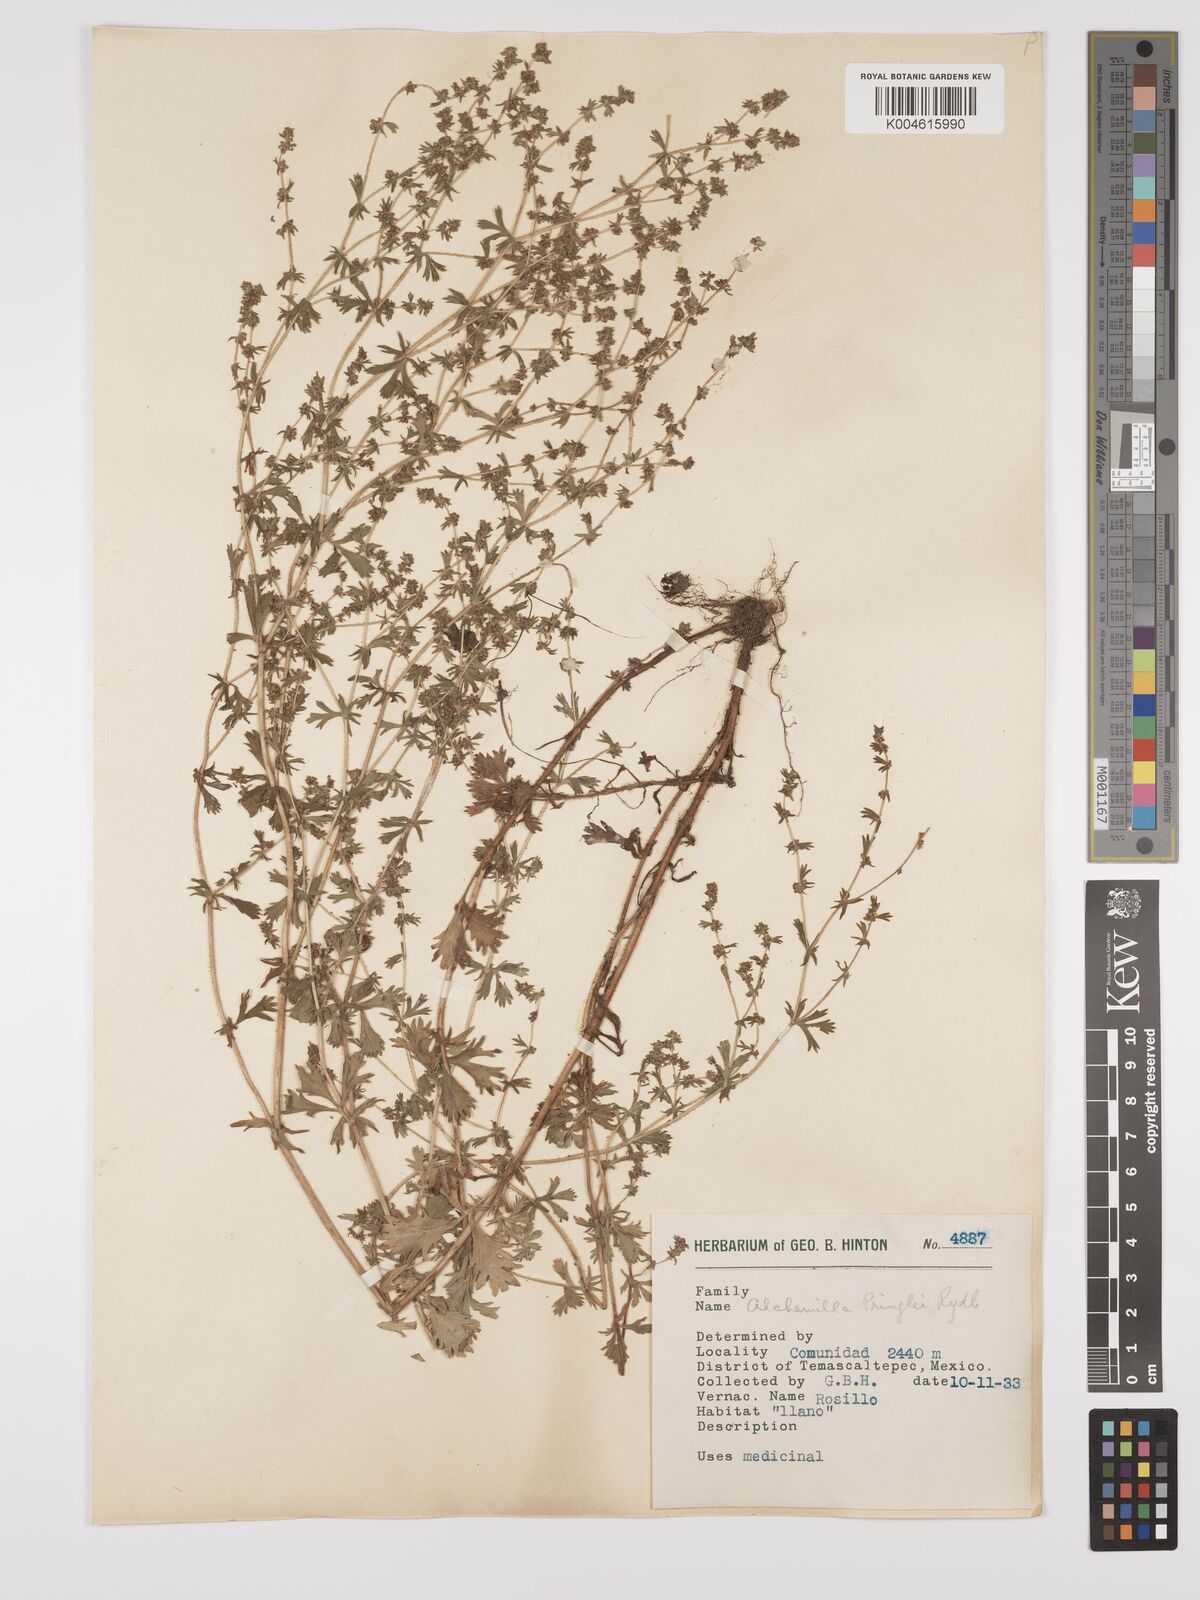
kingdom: Plantae
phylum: Tracheophyta
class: Magnoliopsida
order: Rosales
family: Rosaceae
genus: Lachemilla
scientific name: Lachemilla sibbaldiifolia
